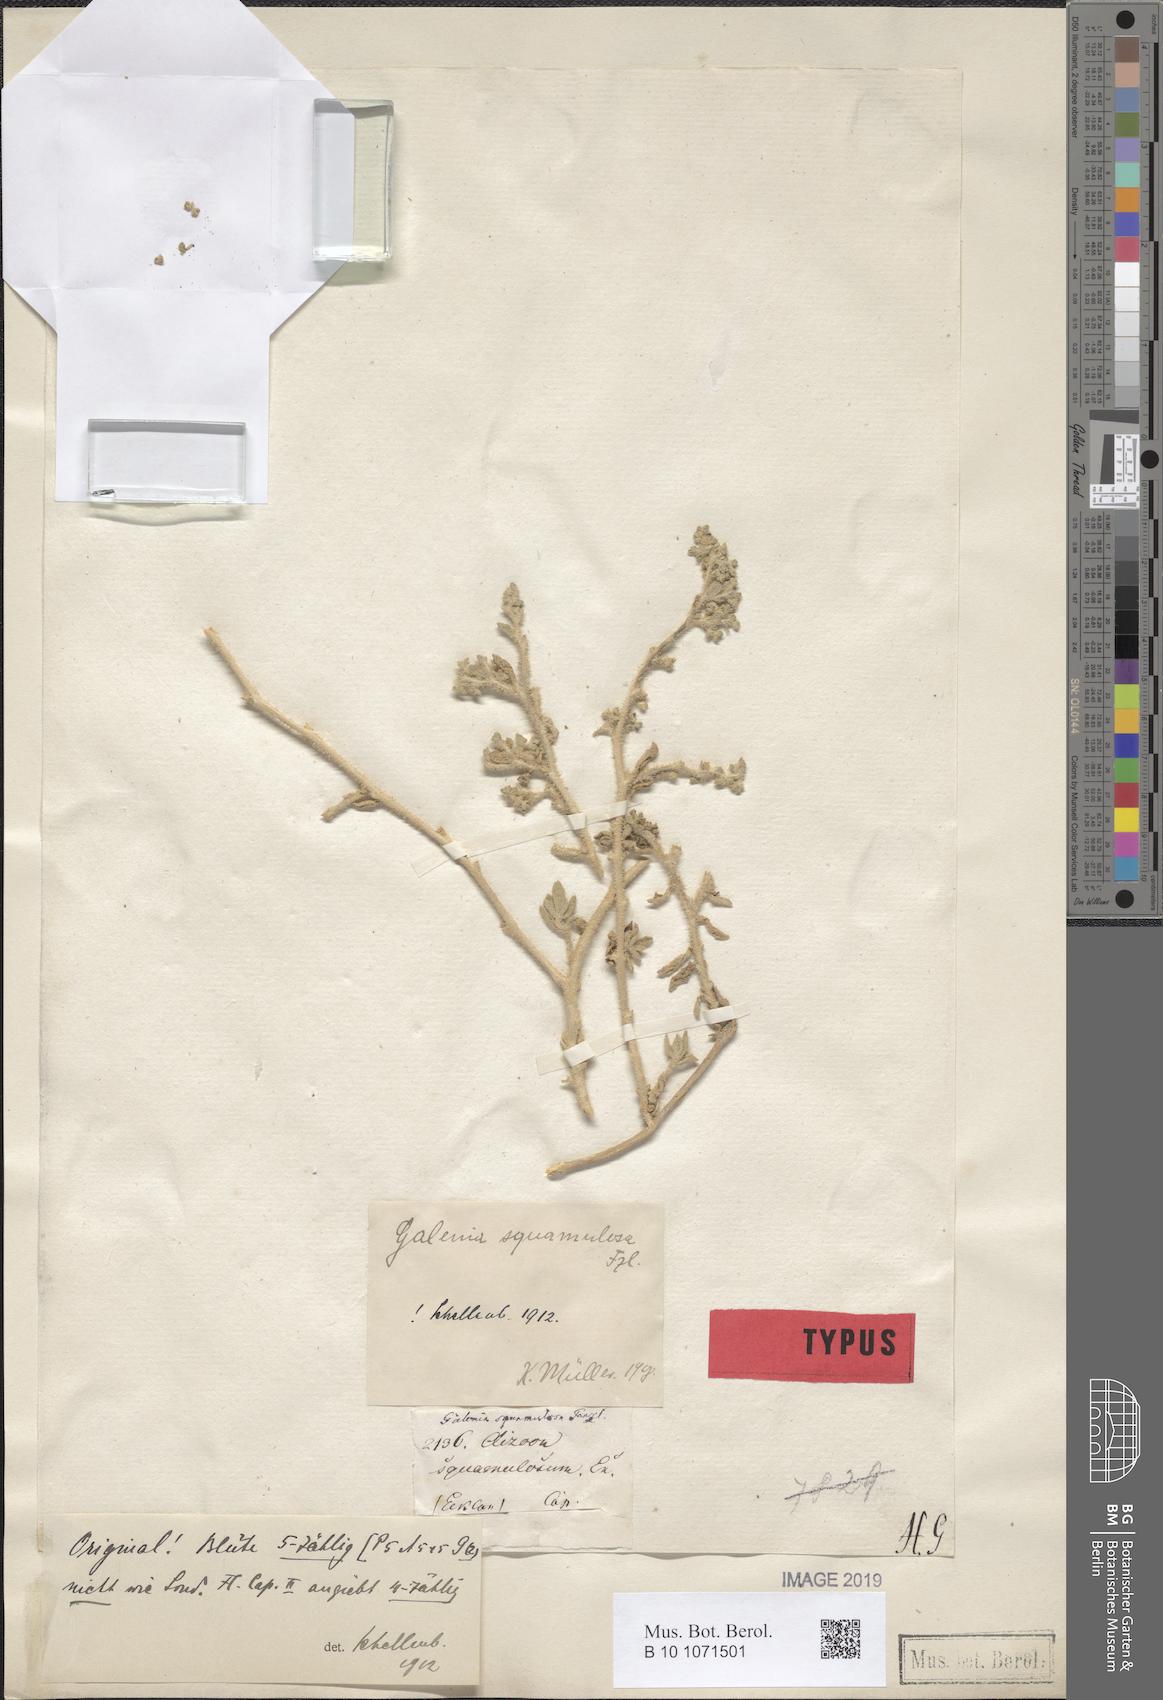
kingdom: Plantae
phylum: Tracheophyta
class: Magnoliopsida
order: Caryophyllales
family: Aizoaceae
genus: Aizoon
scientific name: Aizoon papulosum
